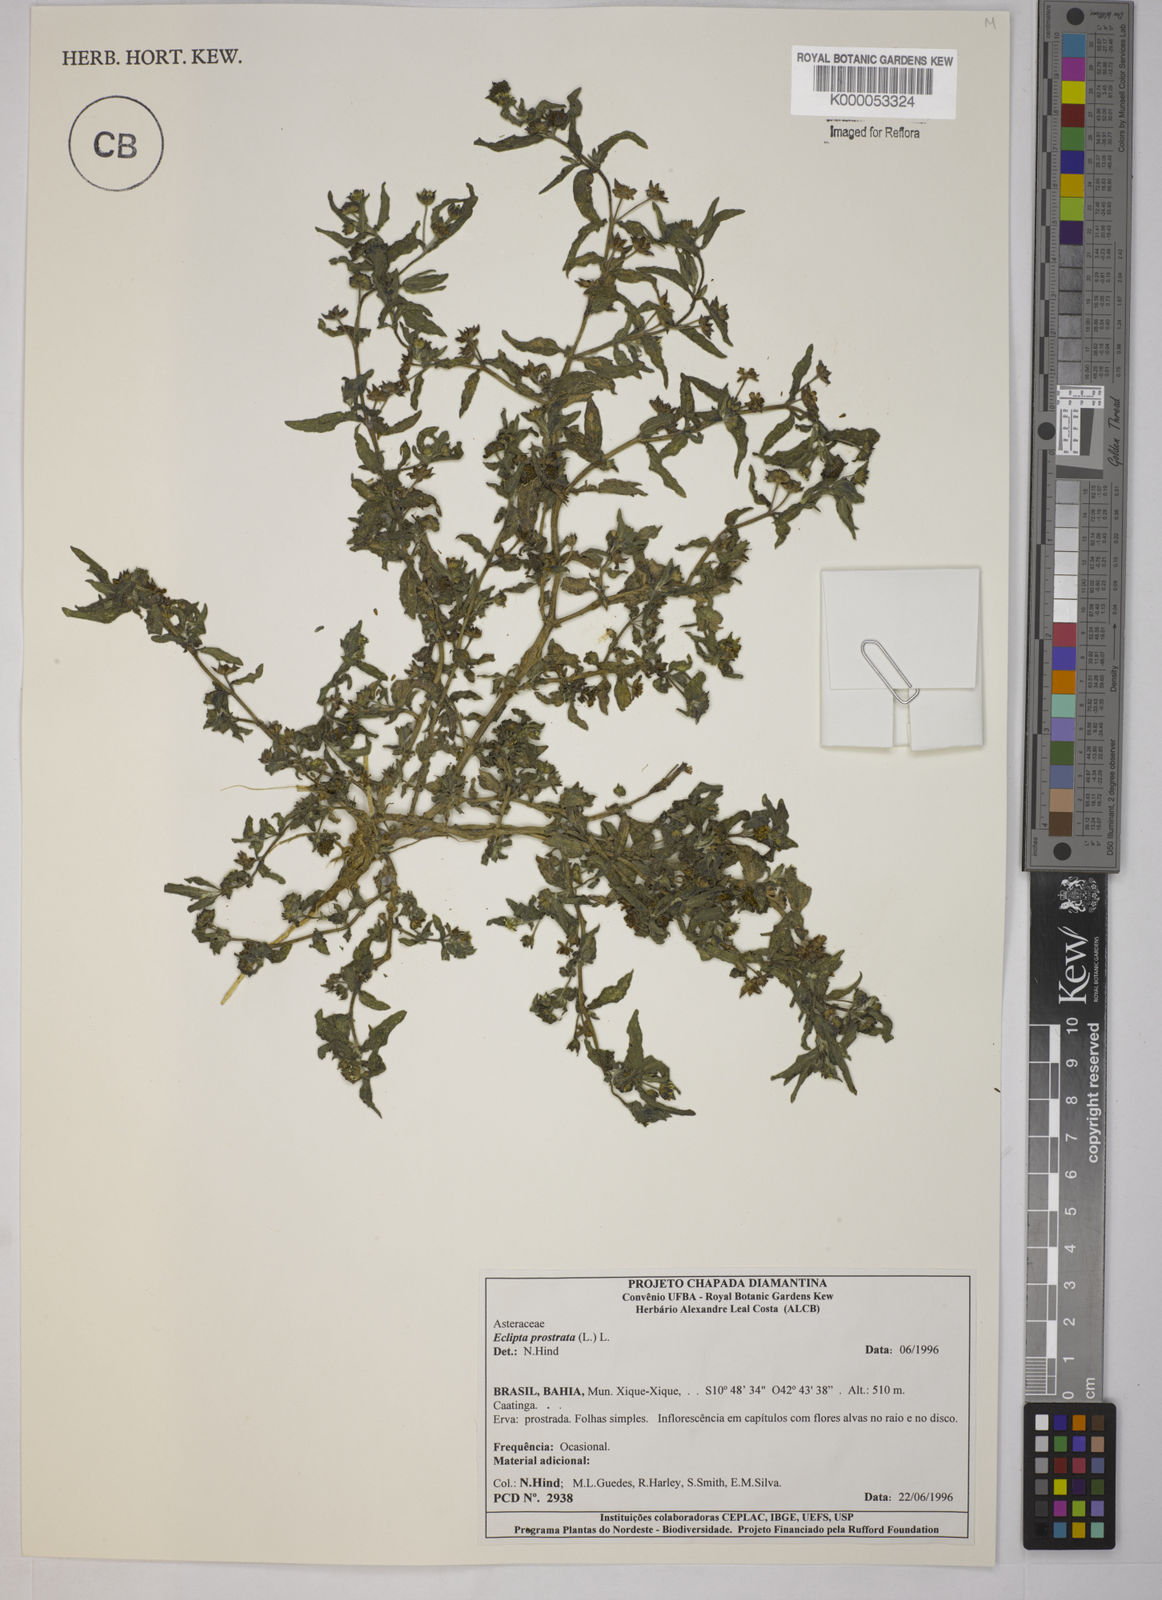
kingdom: Plantae
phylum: Tracheophyta
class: Magnoliopsida
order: Asterales
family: Asteraceae
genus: Eclipta
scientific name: Eclipta prostrata
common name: False daisy
